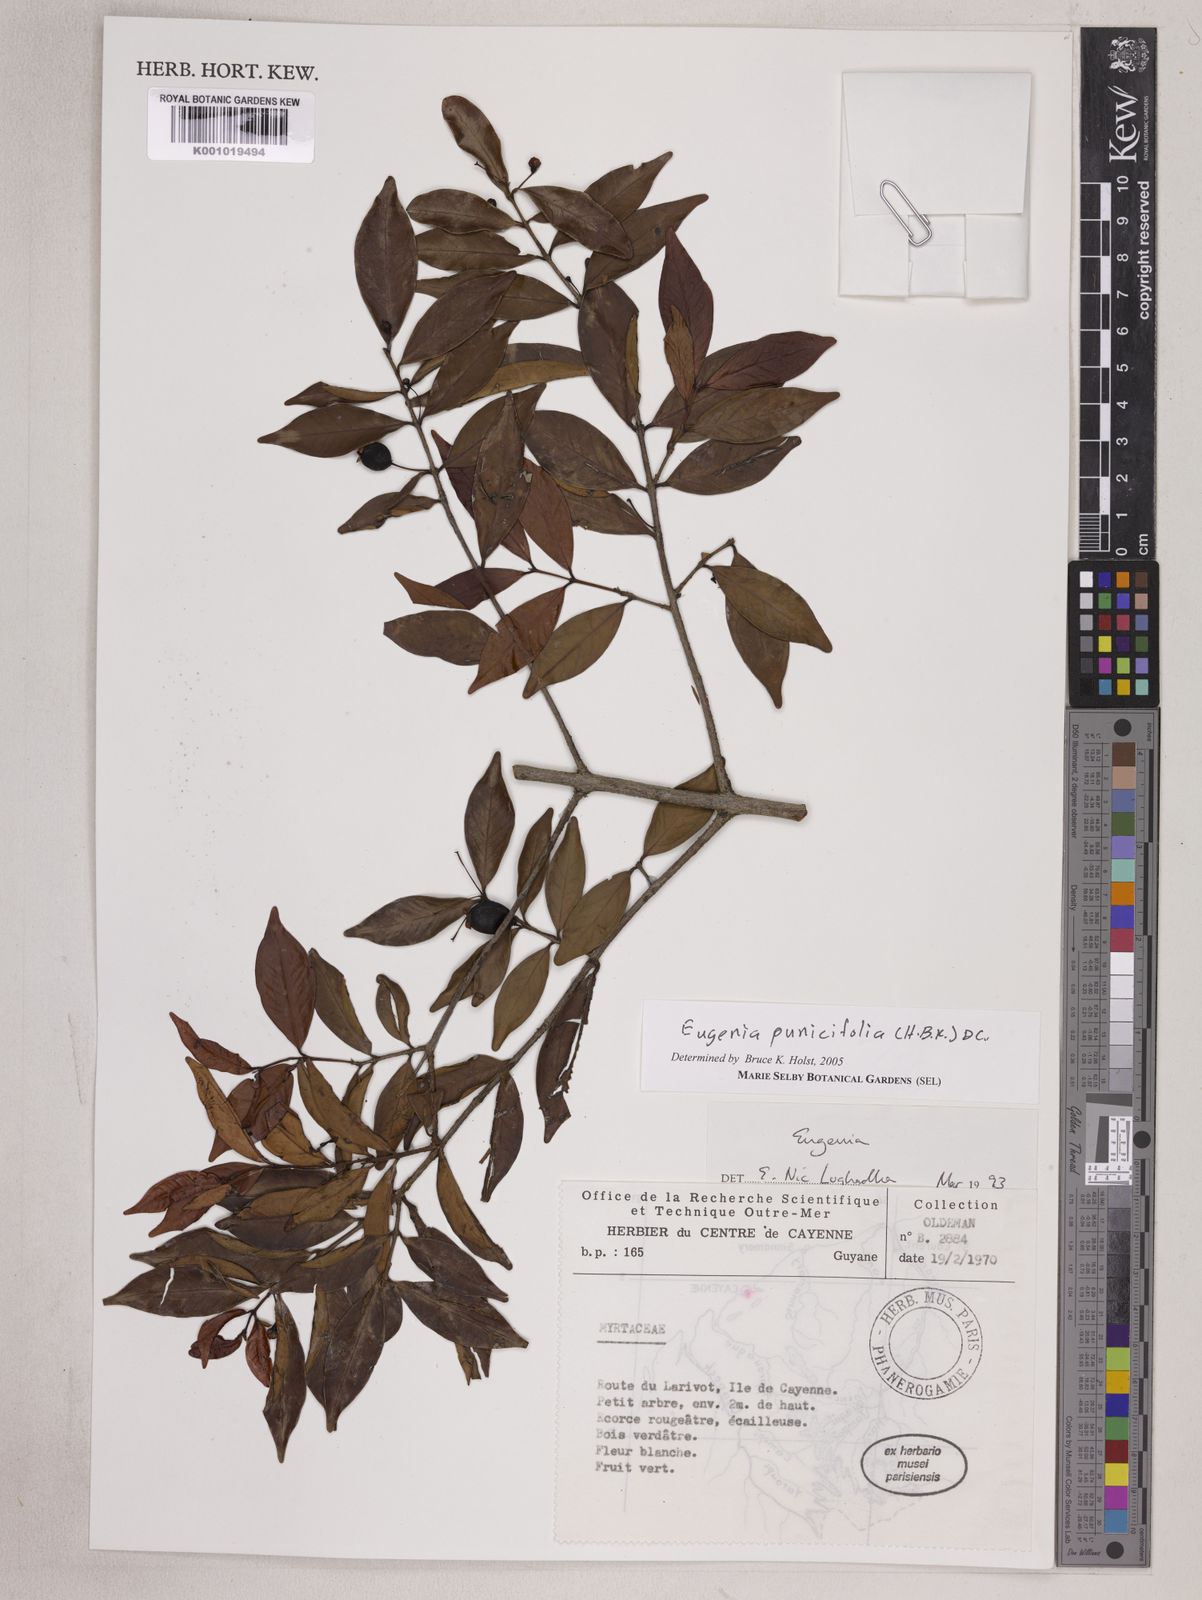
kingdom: Plantae
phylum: Tracheophyta
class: Magnoliopsida
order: Myrtales
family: Myrtaceae
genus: Eugenia
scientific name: Eugenia punicifolia
